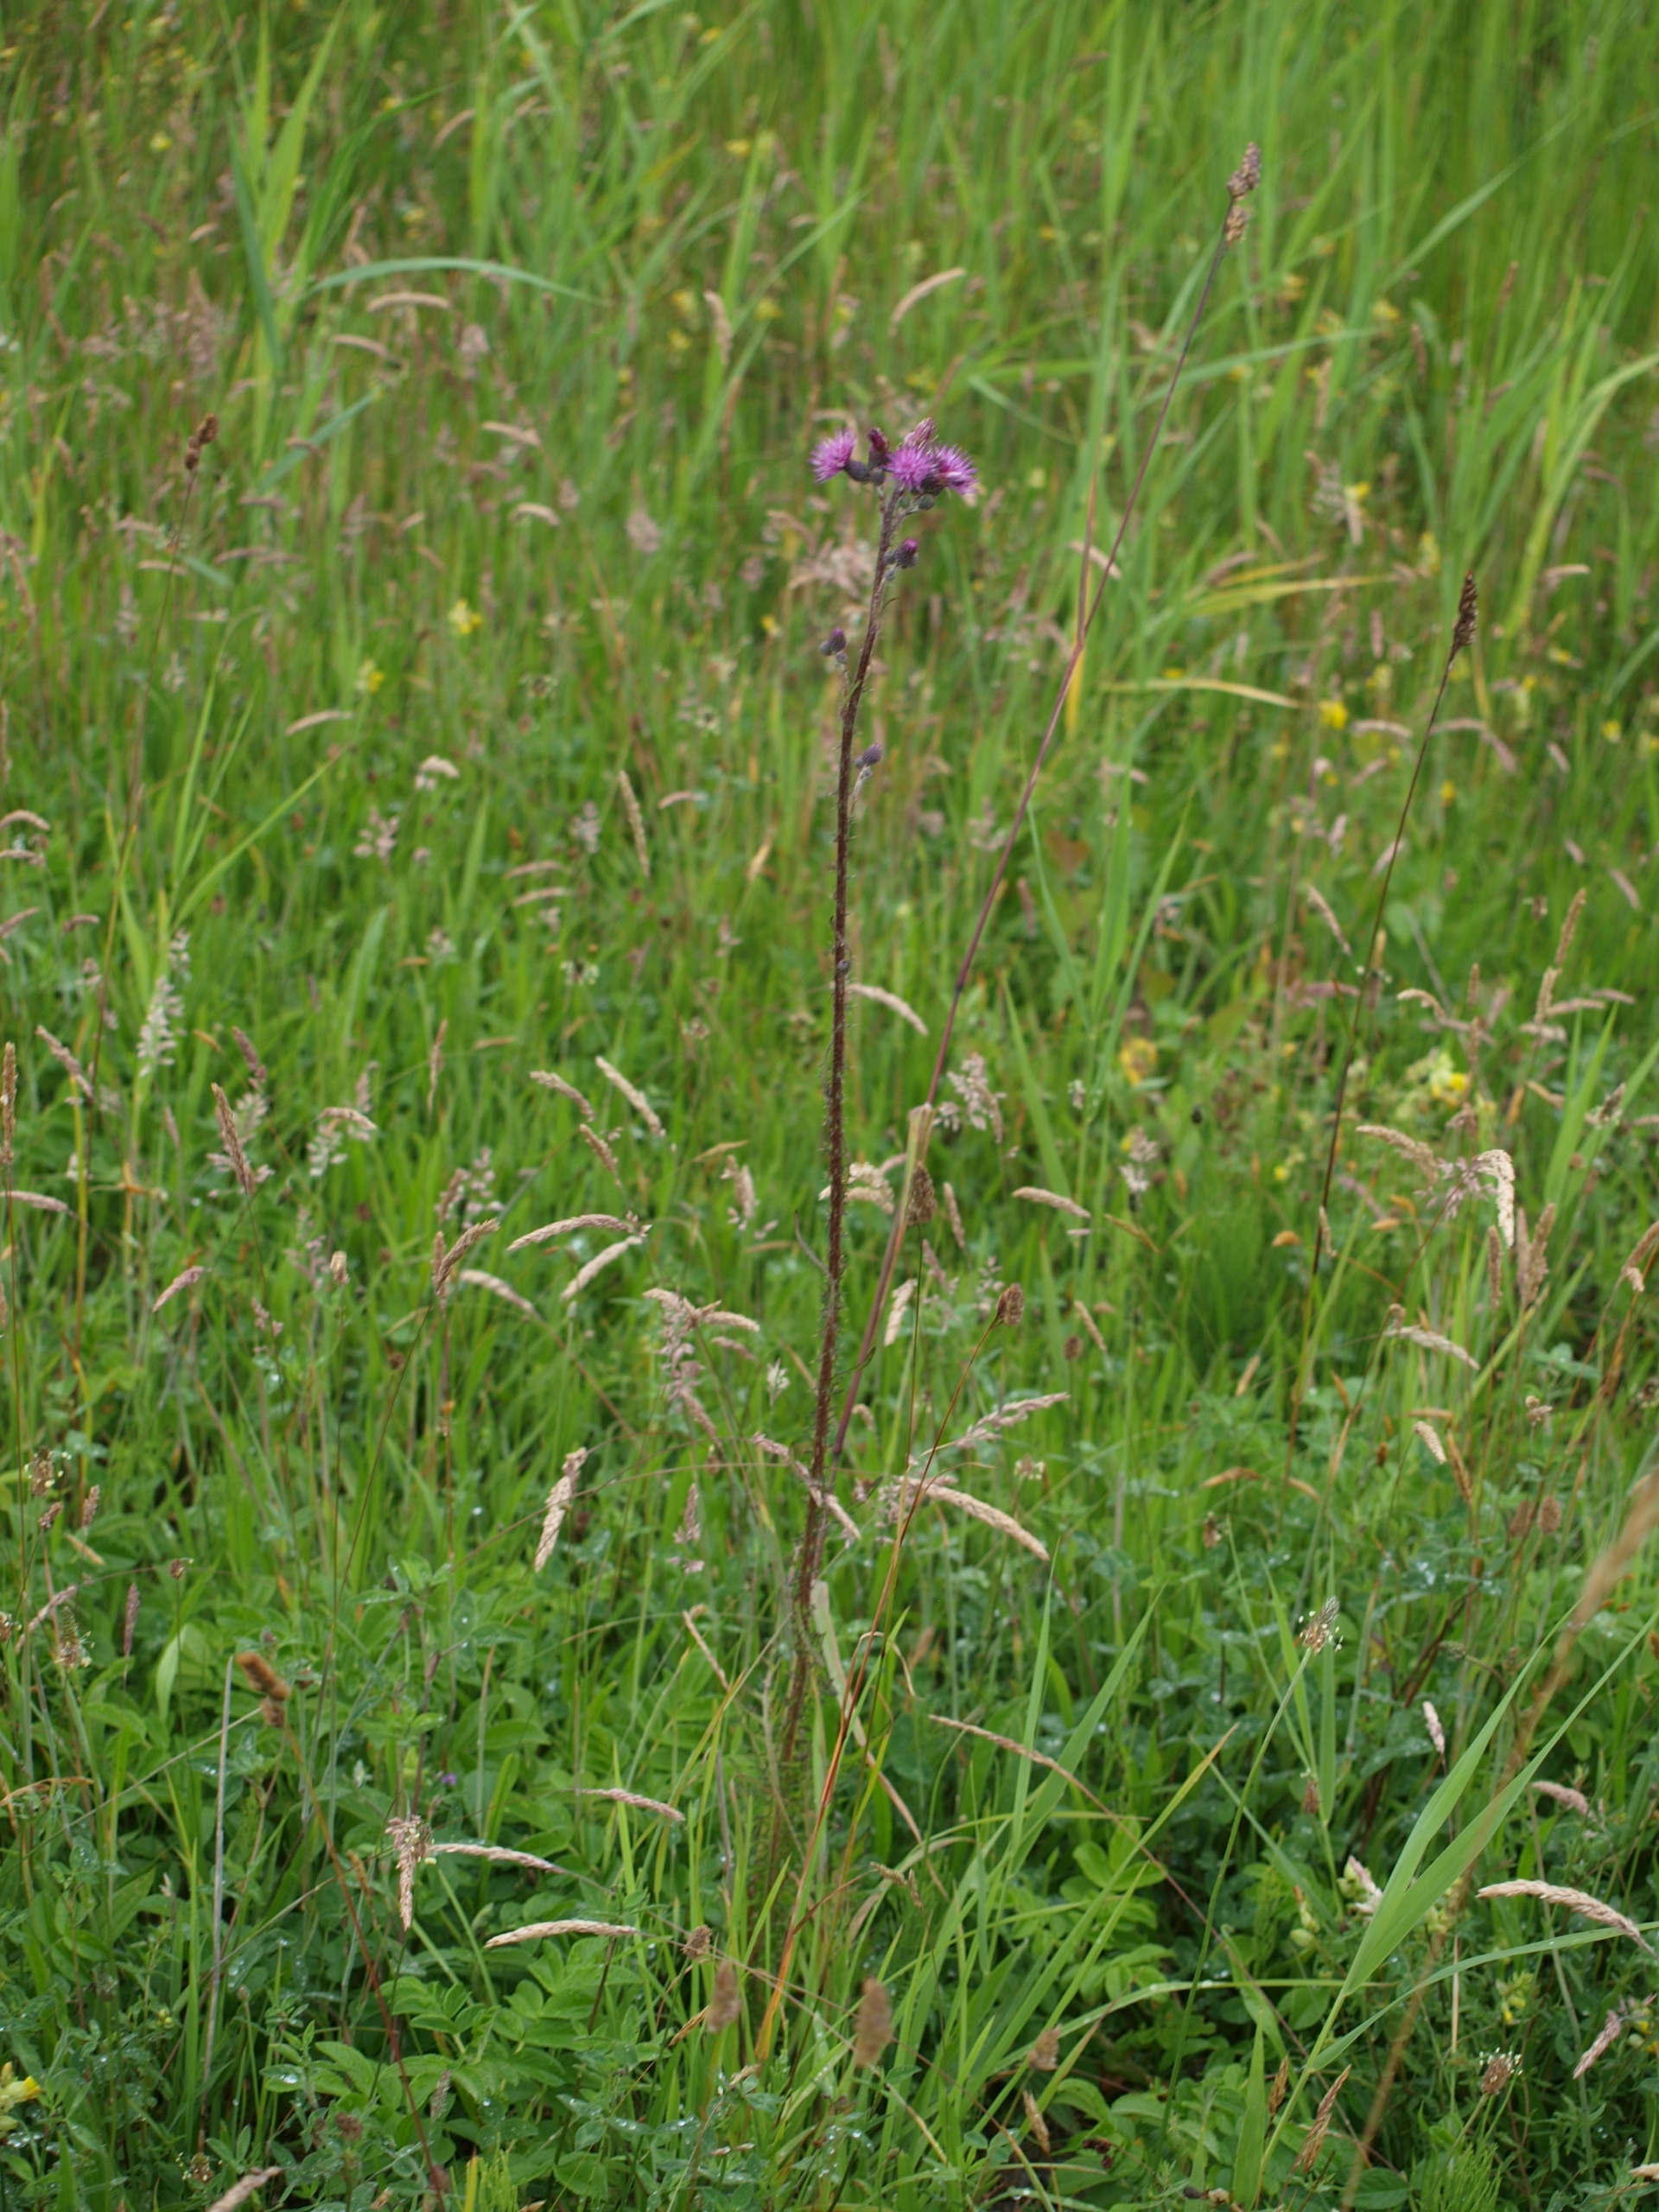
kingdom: Plantae
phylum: Tracheophyta
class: Magnoliopsida
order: Asterales
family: Asteraceae
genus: Cirsium
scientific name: Cirsium palustre
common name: Kær-tidsel
